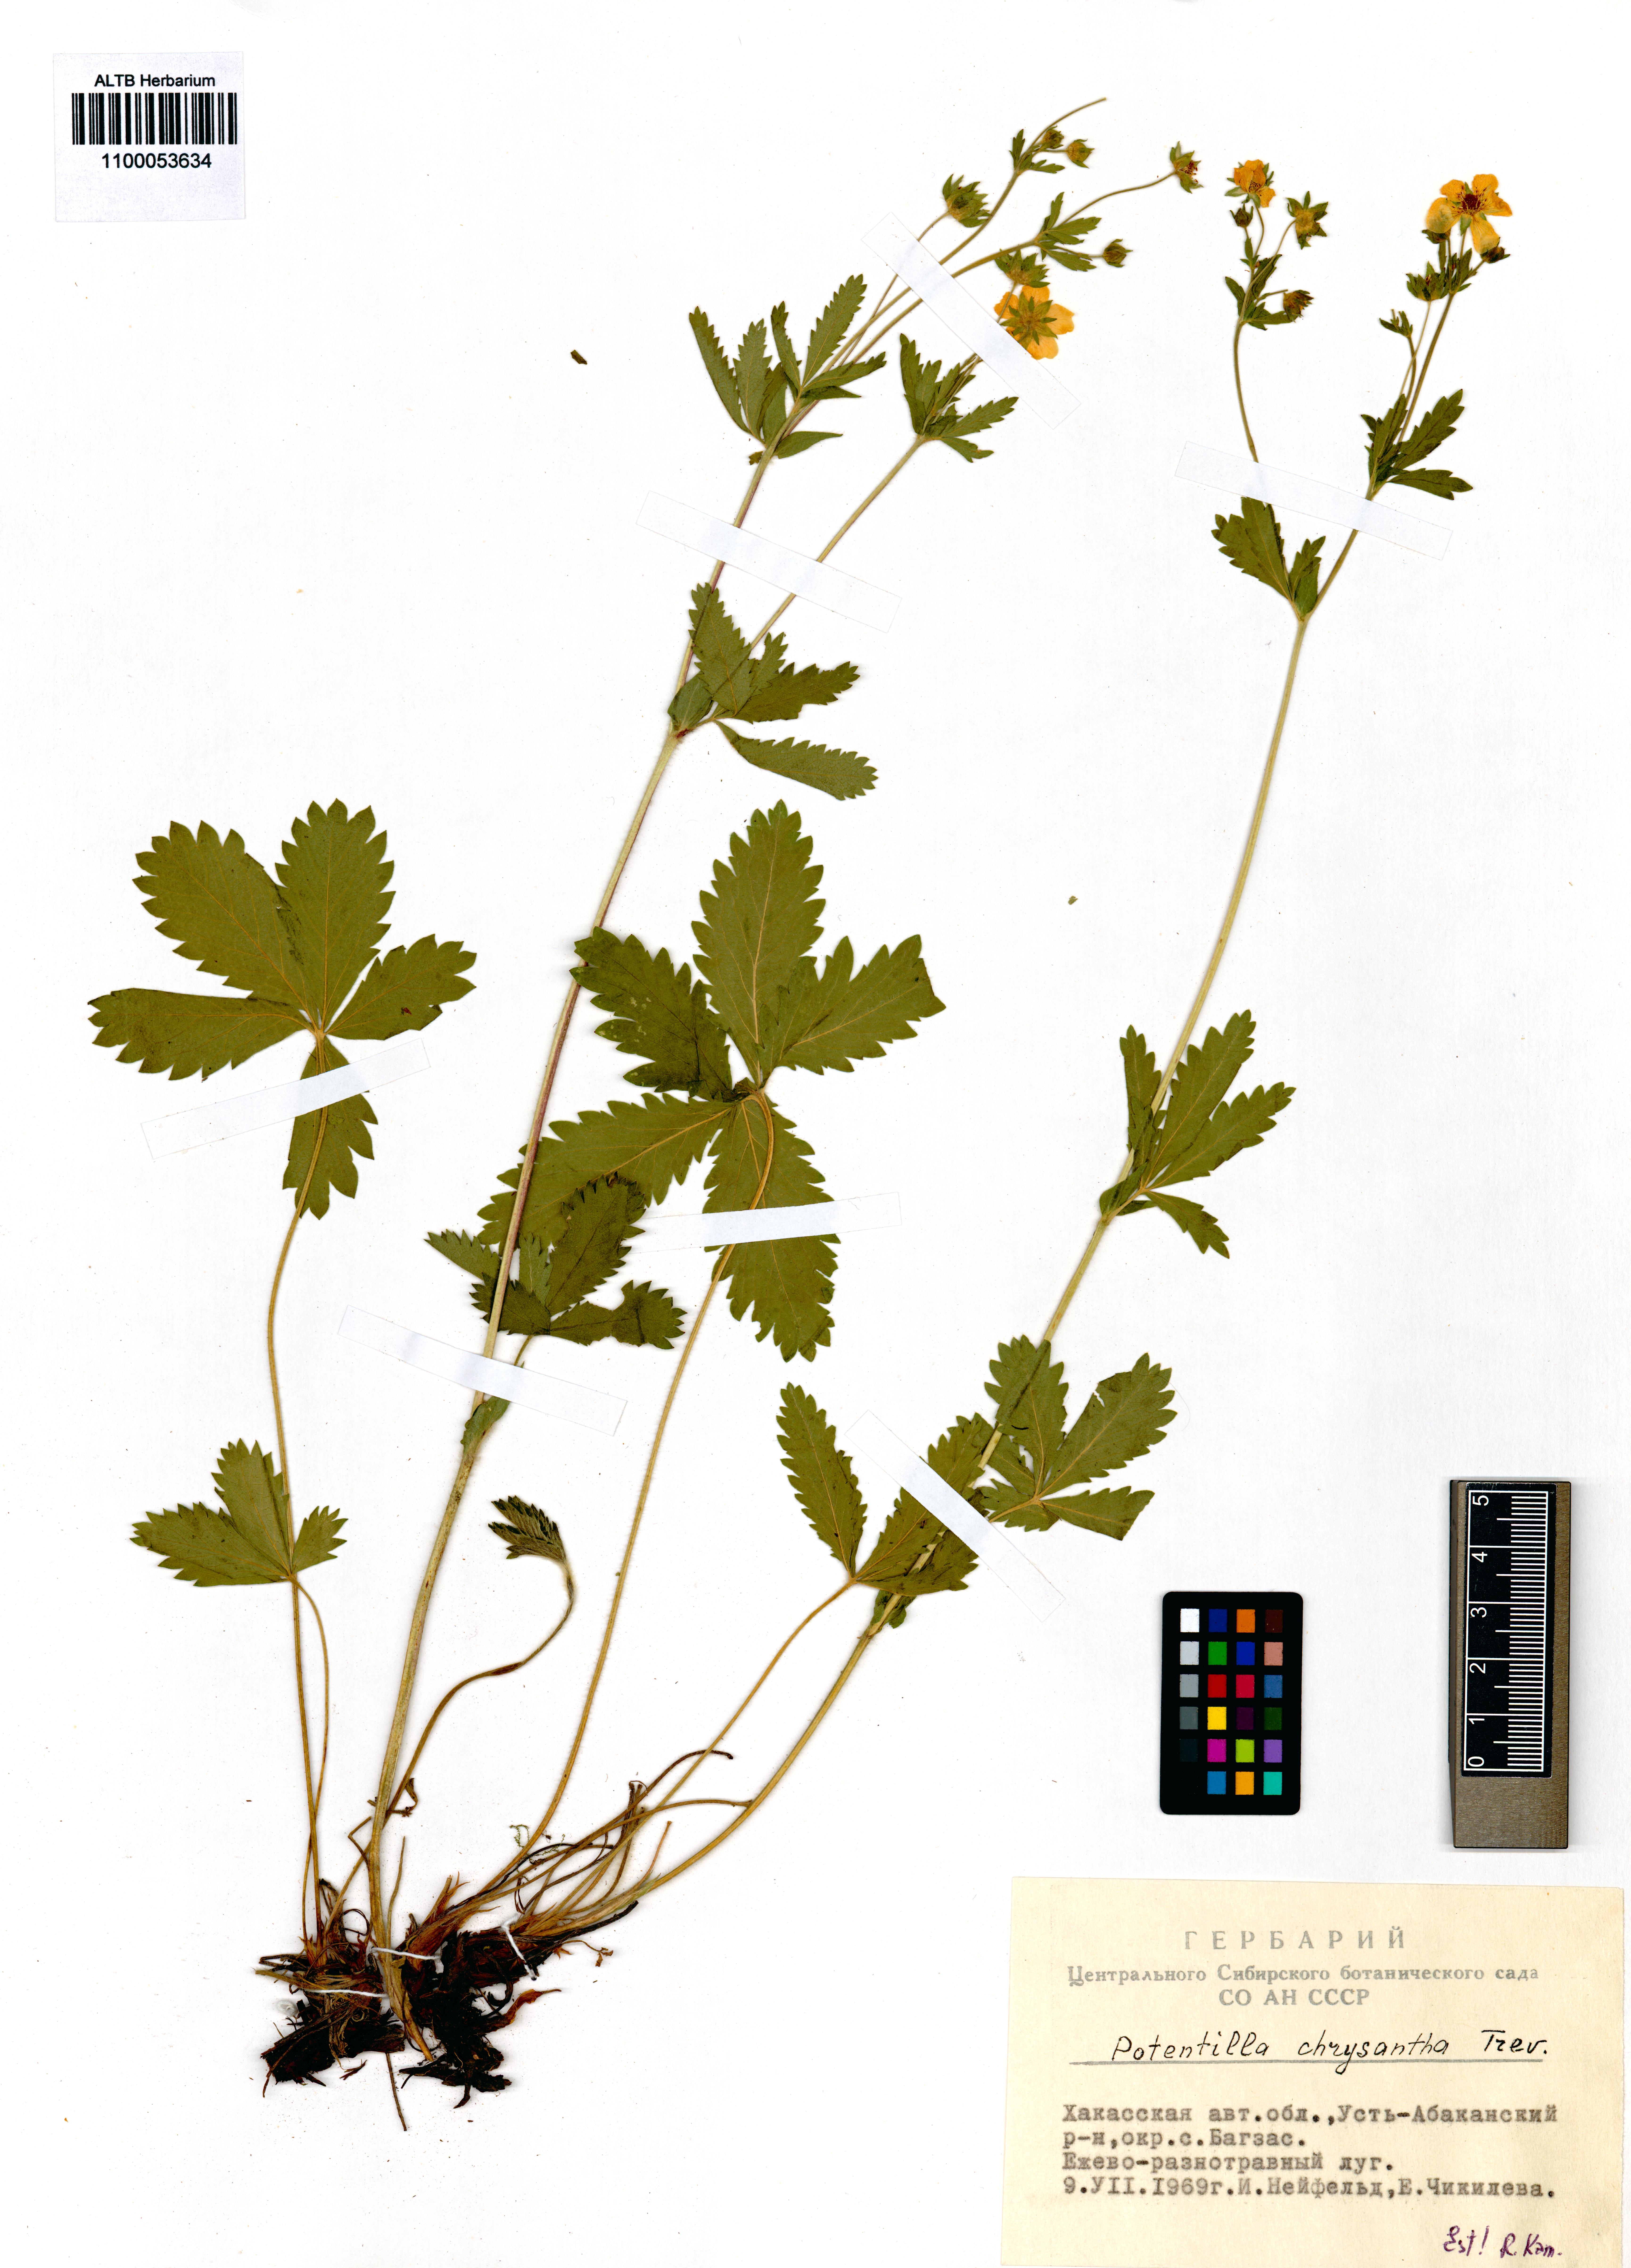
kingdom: Plantae
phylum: Tracheophyta
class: Magnoliopsida
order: Rosales
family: Rosaceae
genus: Potentilla
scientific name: Potentilla chrysantha
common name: Thuringian cinquefoil
